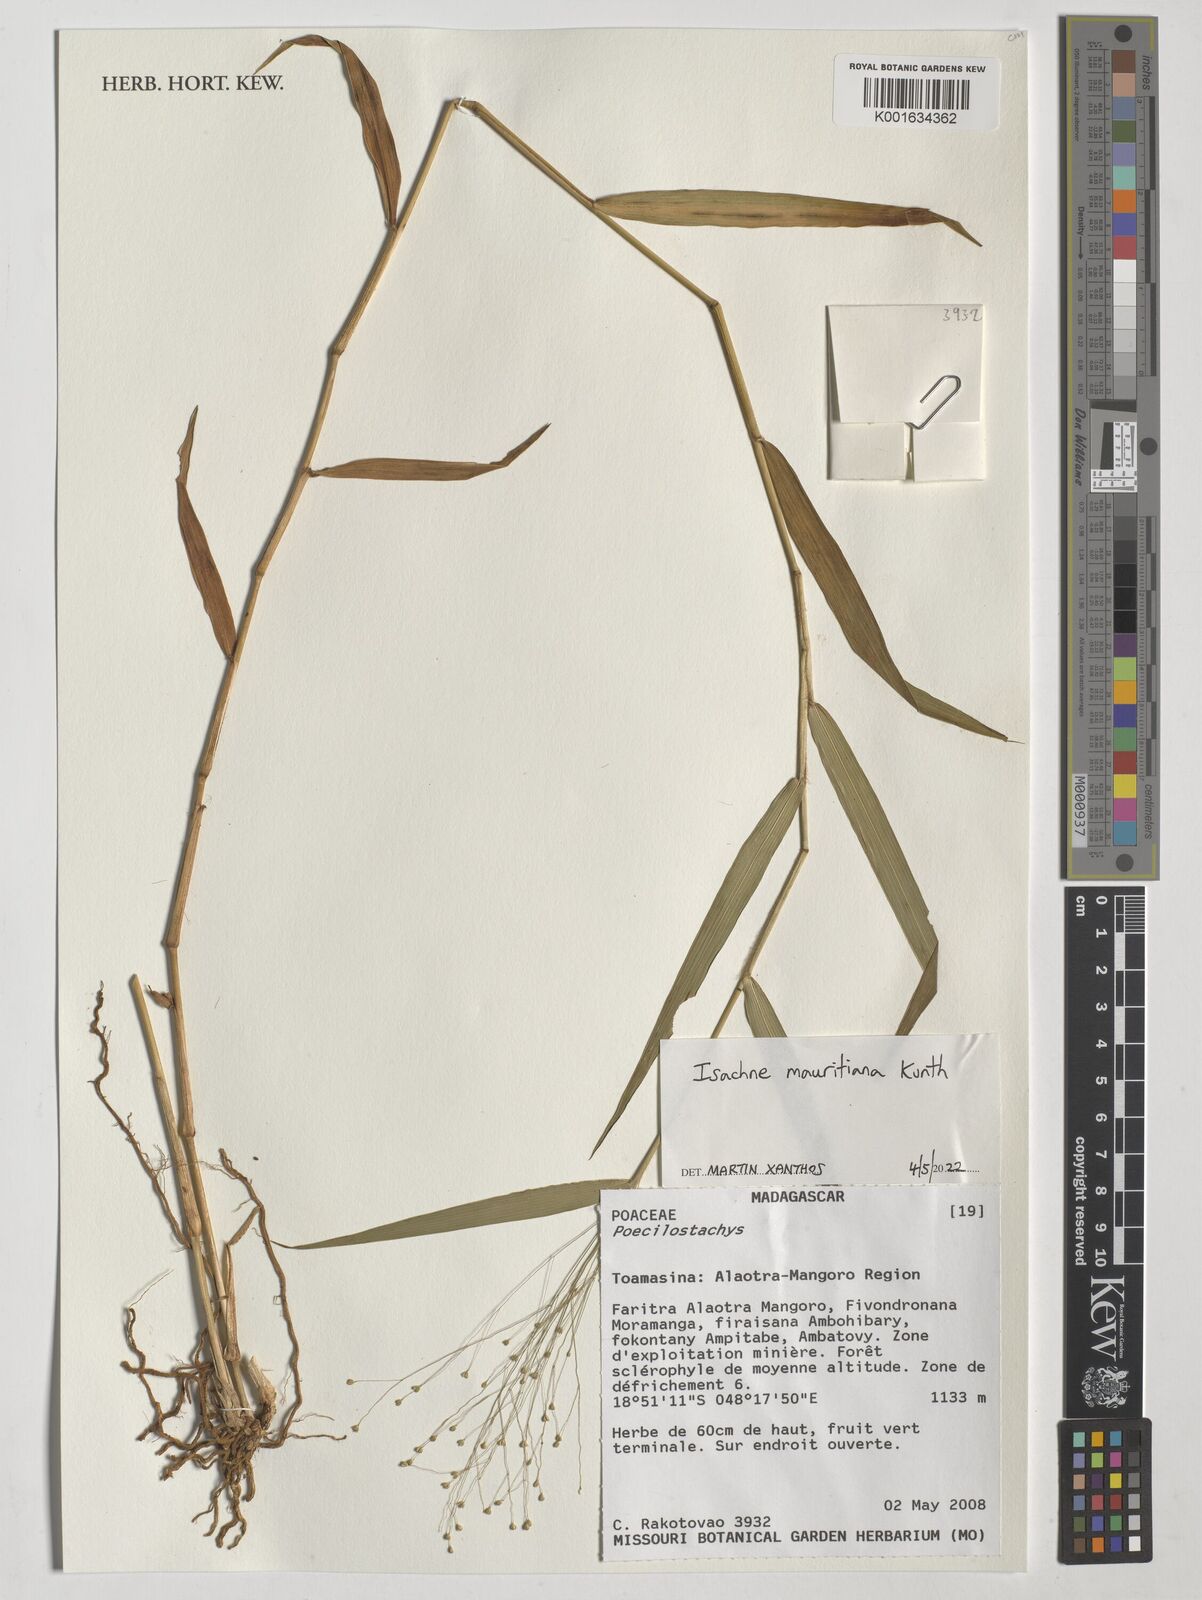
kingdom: Plantae
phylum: Tracheophyta
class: Liliopsida
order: Poales
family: Poaceae
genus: Isachne
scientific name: Isachne mauritiana
